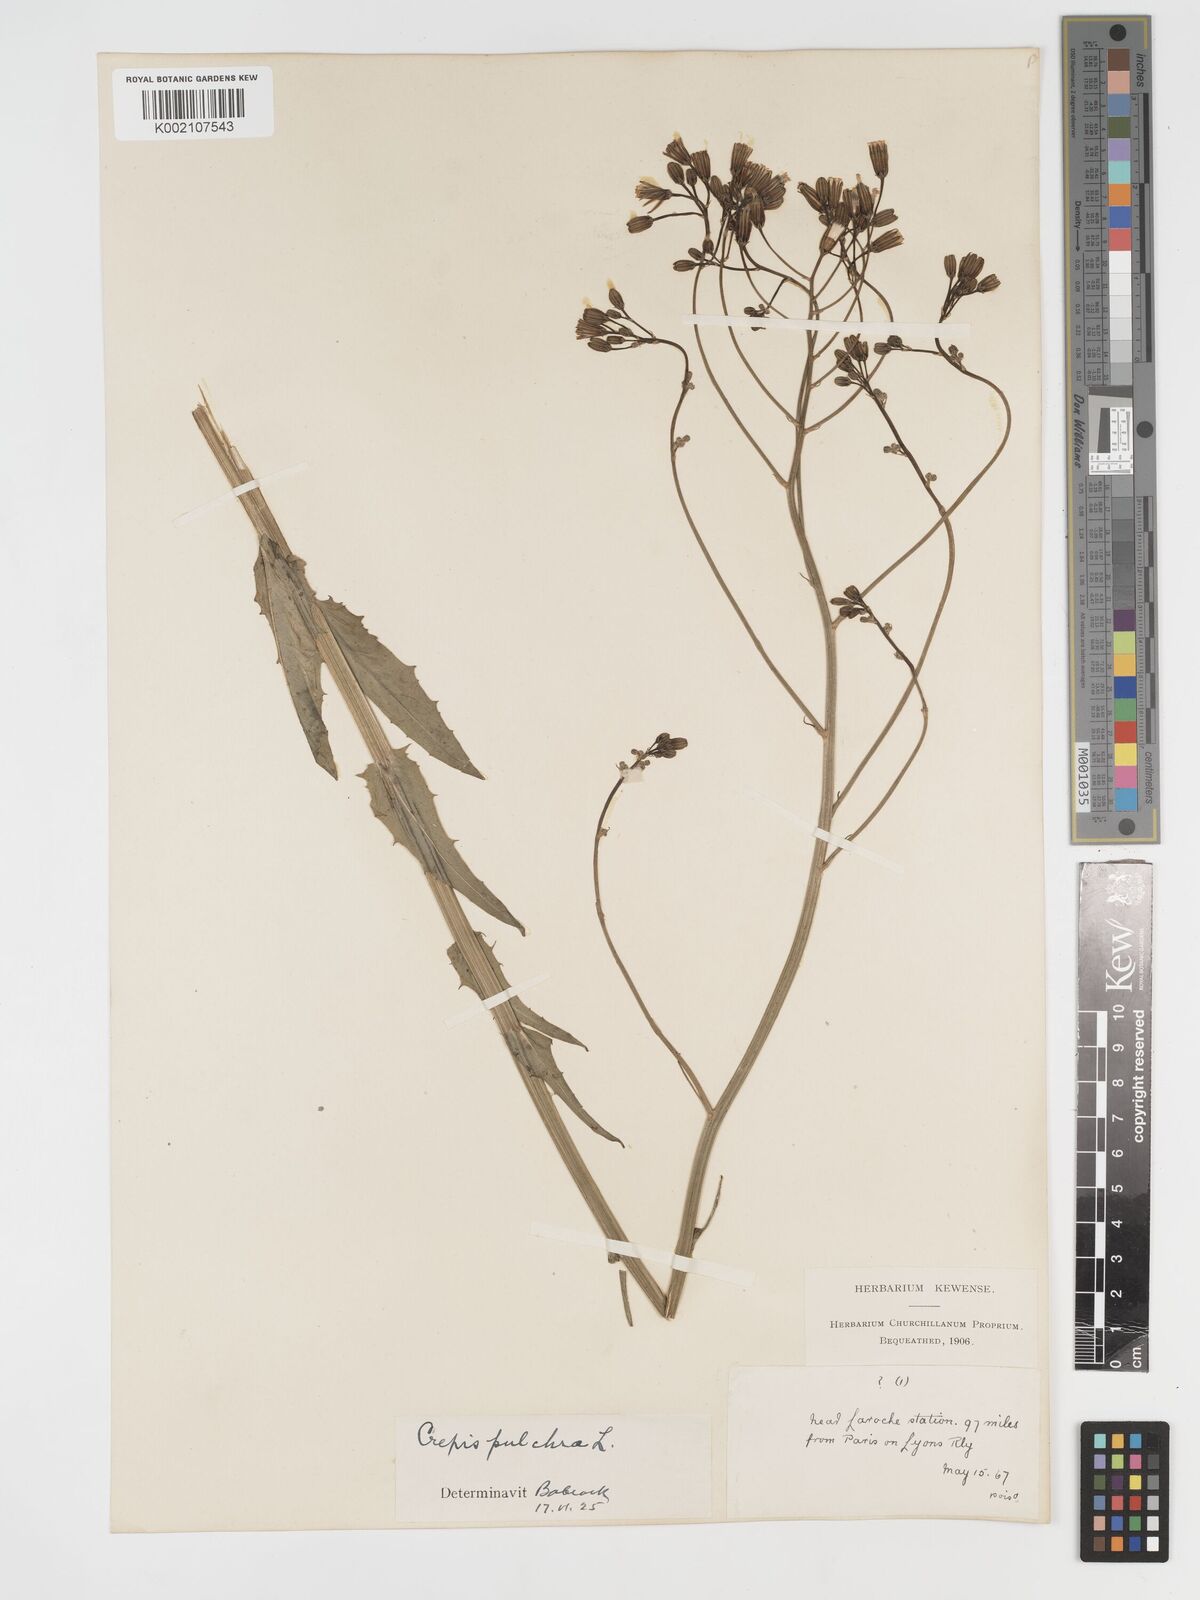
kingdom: Plantae
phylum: Tracheophyta
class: Magnoliopsida
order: Asterales
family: Asteraceae
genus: Crepis
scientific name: Crepis pulchra
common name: Hawk's-beard
